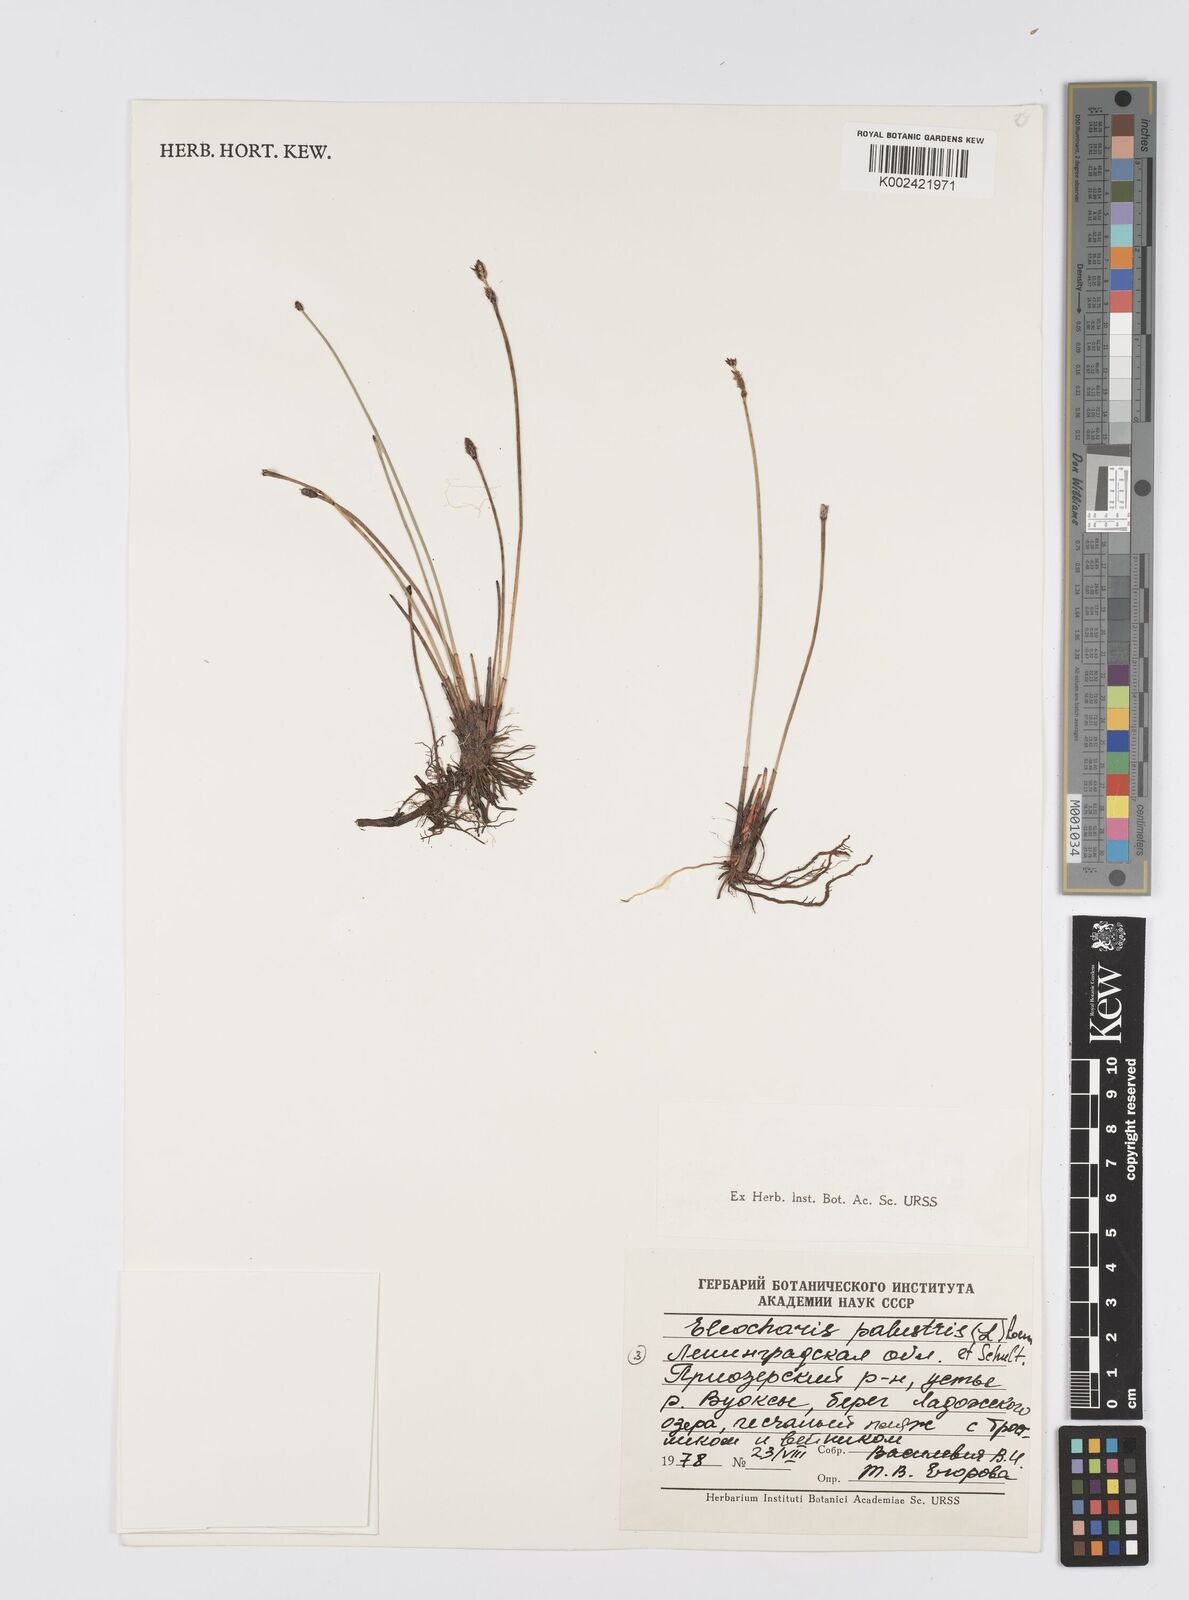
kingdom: Plantae
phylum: Tracheophyta
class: Liliopsida
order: Poales
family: Cyperaceae
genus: Eleocharis
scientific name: Eleocharis palustris
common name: Common spike-rush
